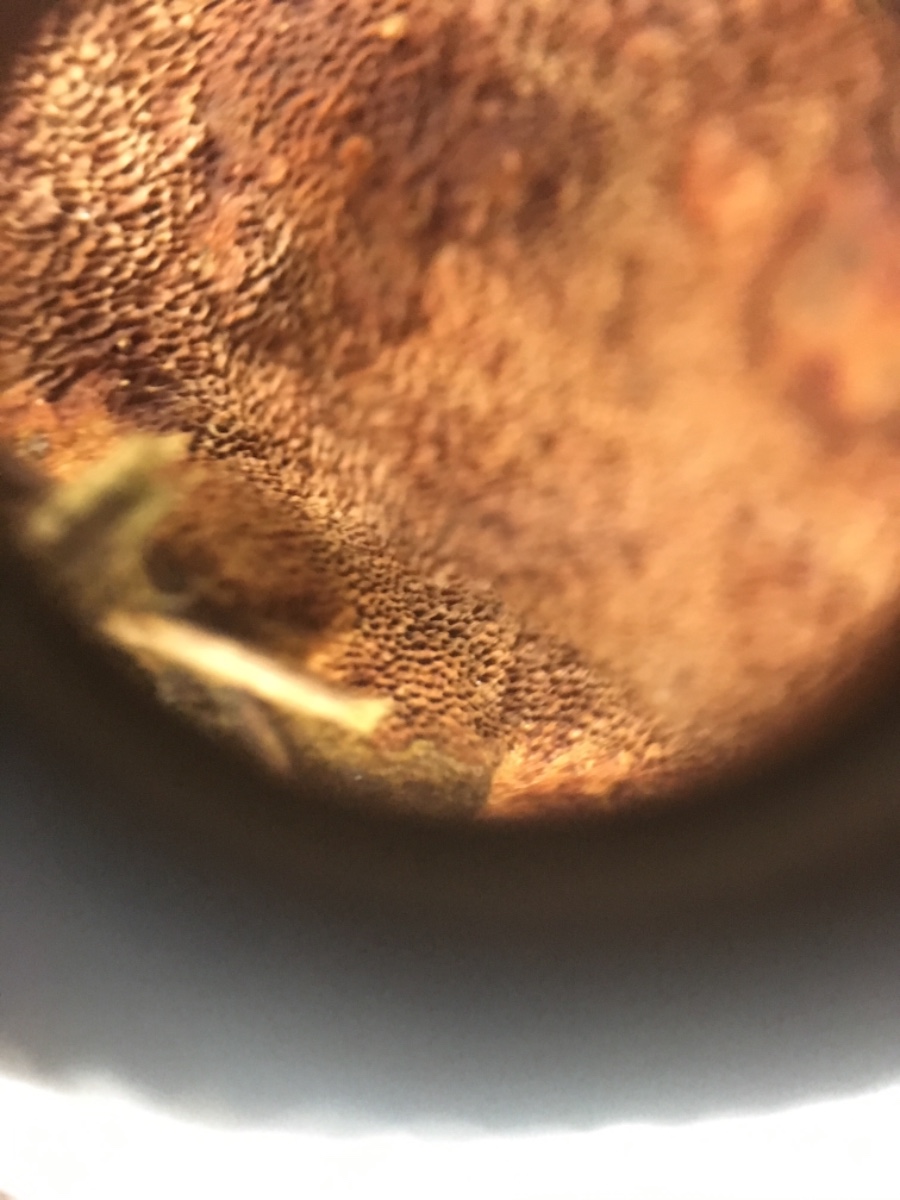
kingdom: Fungi
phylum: Basidiomycota
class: Agaricomycetes
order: Hymenochaetales
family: Hymenochaetaceae
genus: Fuscoporia
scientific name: Fuscoporia ferrea
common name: skorpe-ildporesvamp
